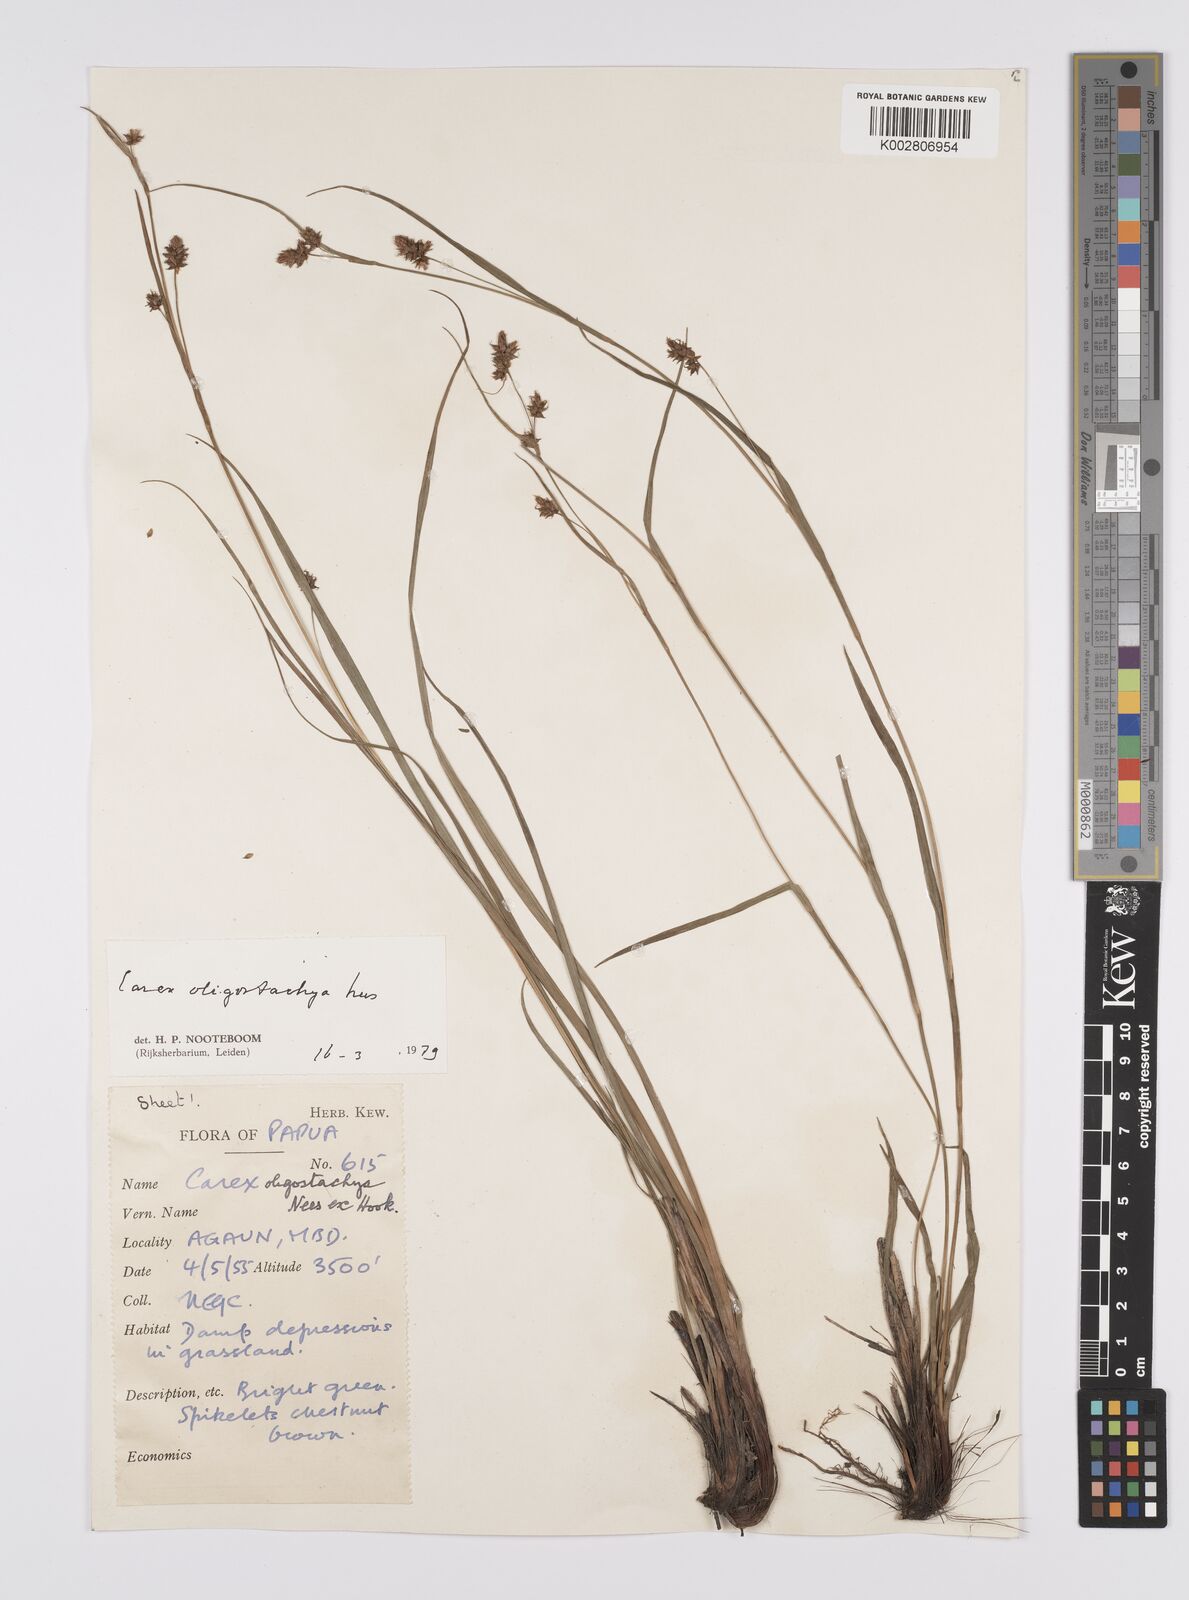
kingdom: Plantae
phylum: Tracheophyta
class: Liliopsida
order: Poales
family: Cyperaceae
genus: Carex
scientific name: Carex oligostachya
